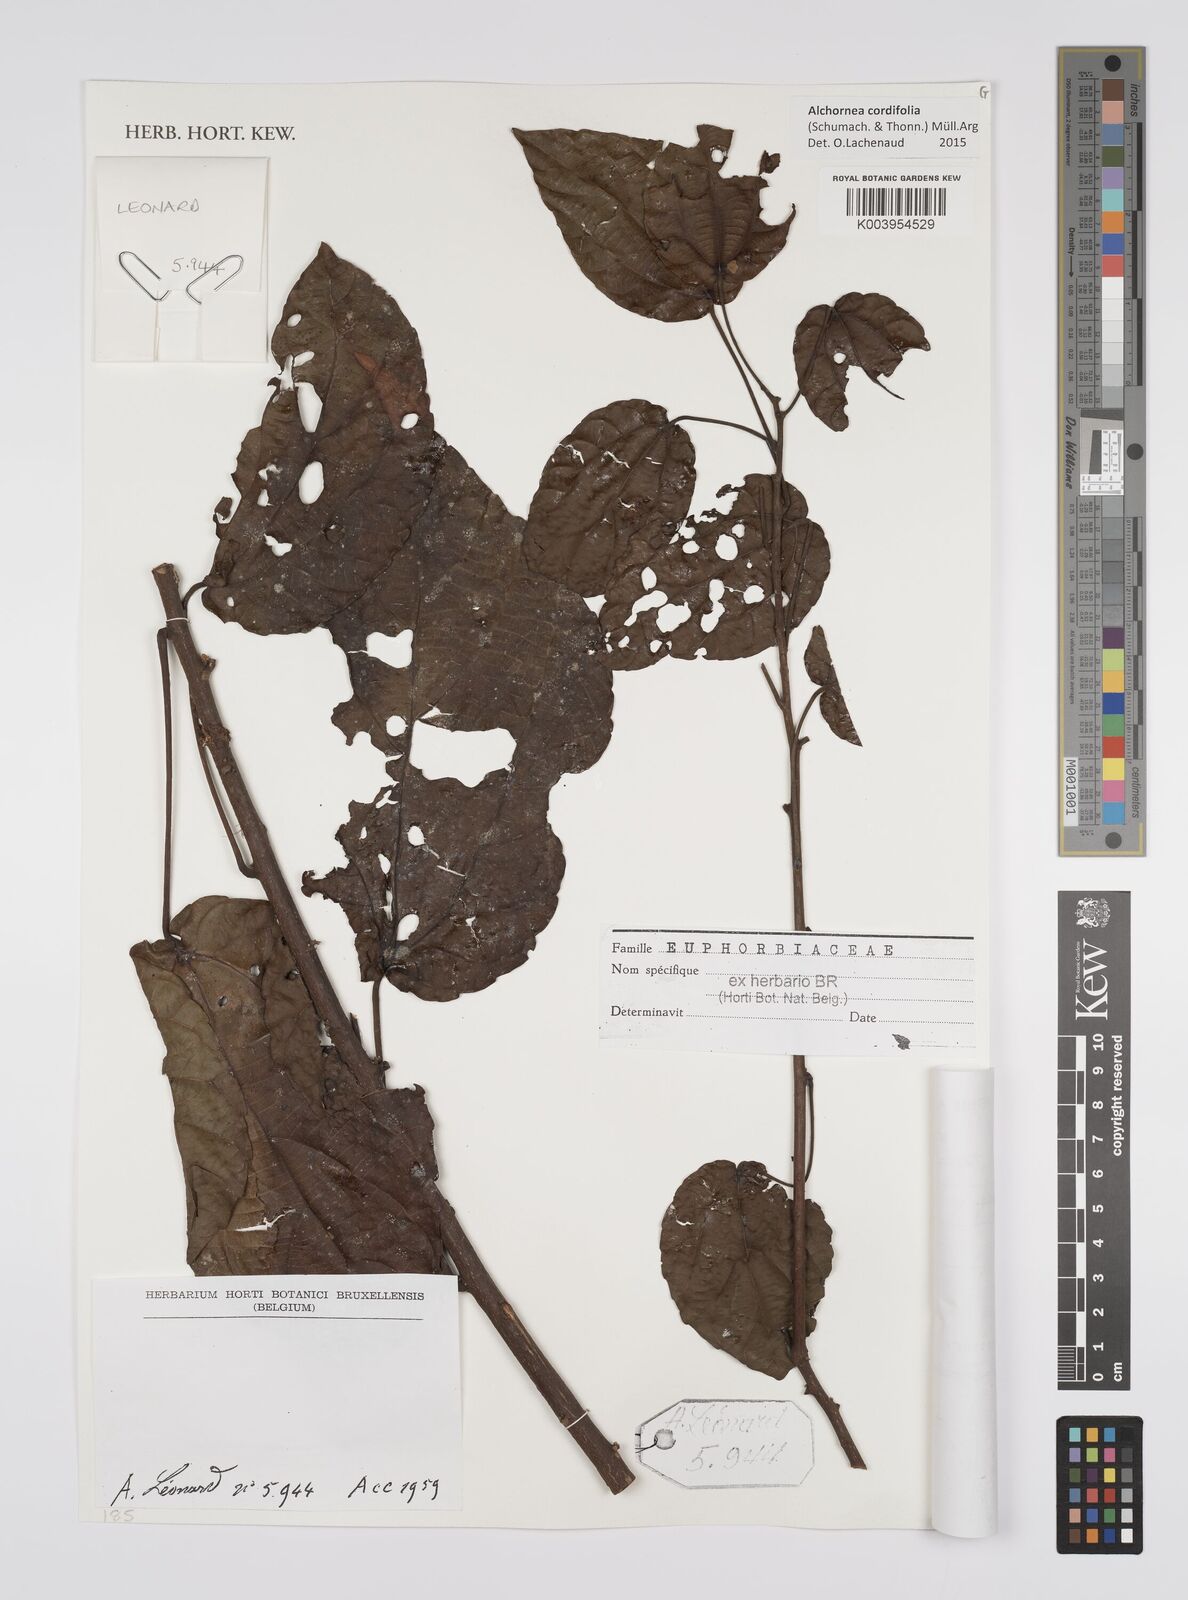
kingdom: Plantae
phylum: Tracheophyta
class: Magnoliopsida
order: Malpighiales
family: Euphorbiaceae
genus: Alchornea
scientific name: Alchornea cordifolia
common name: Christmasbush
